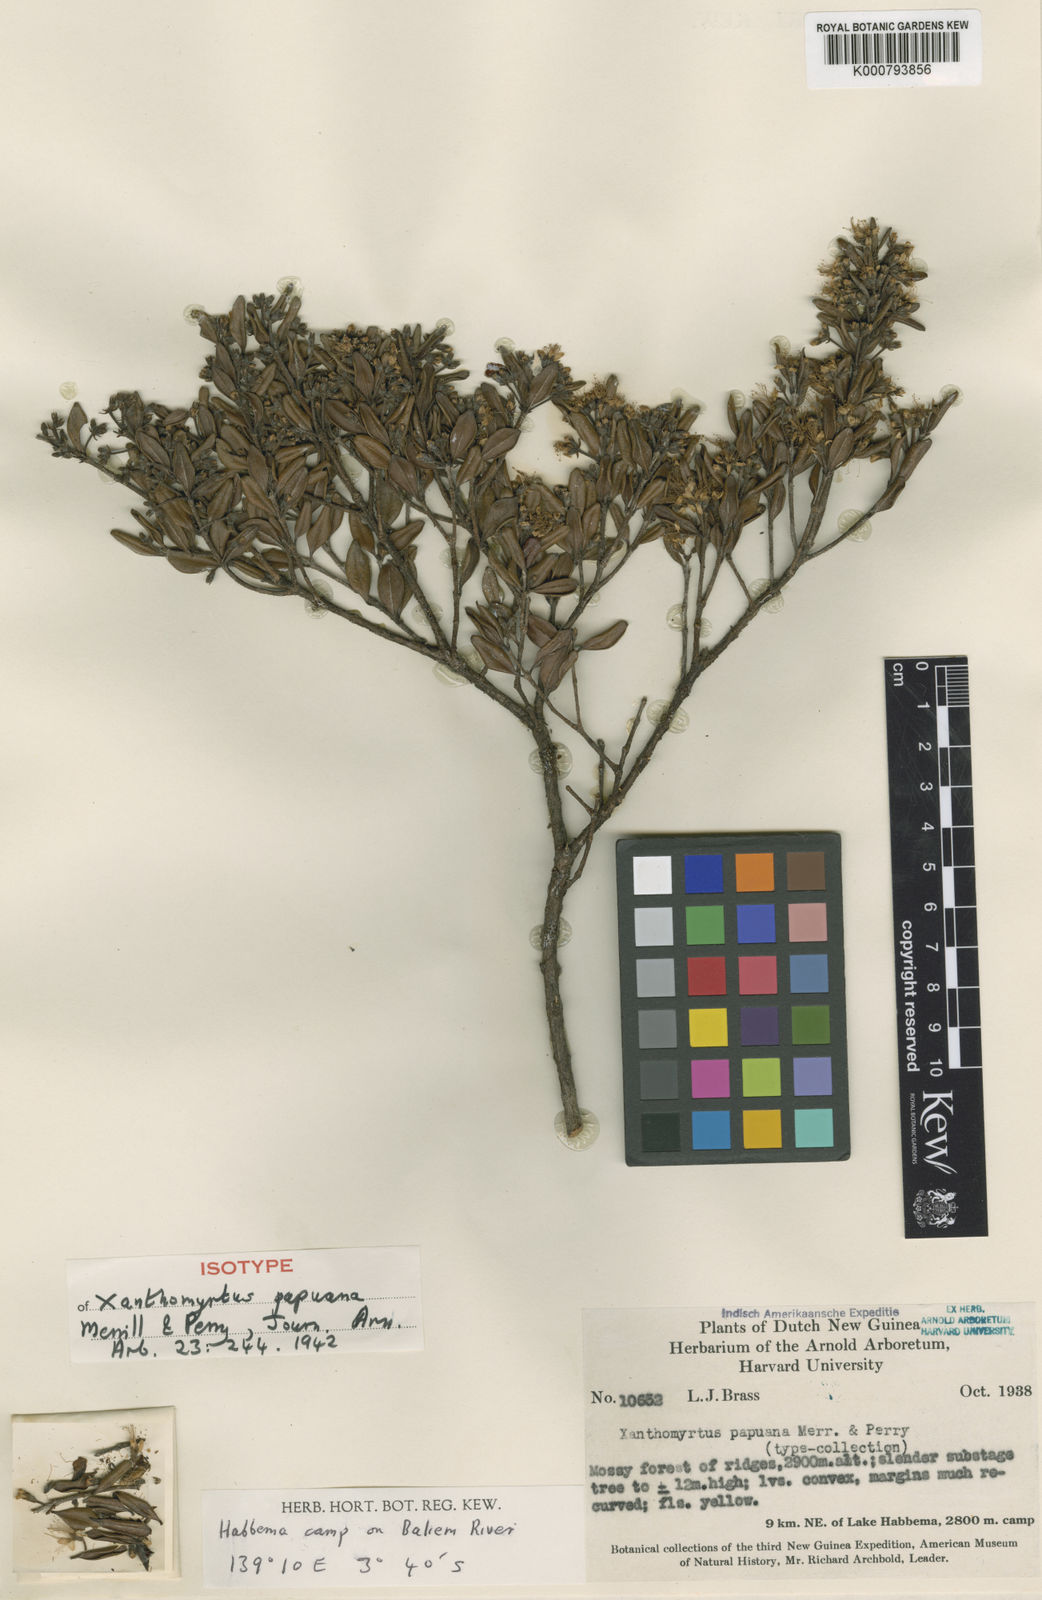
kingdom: Plantae
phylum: Tracheophyta
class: Magnoliopsida
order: Myrtales
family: Myrtaceae
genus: Xanthomyrtus
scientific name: Xanthomyrtus papuana
